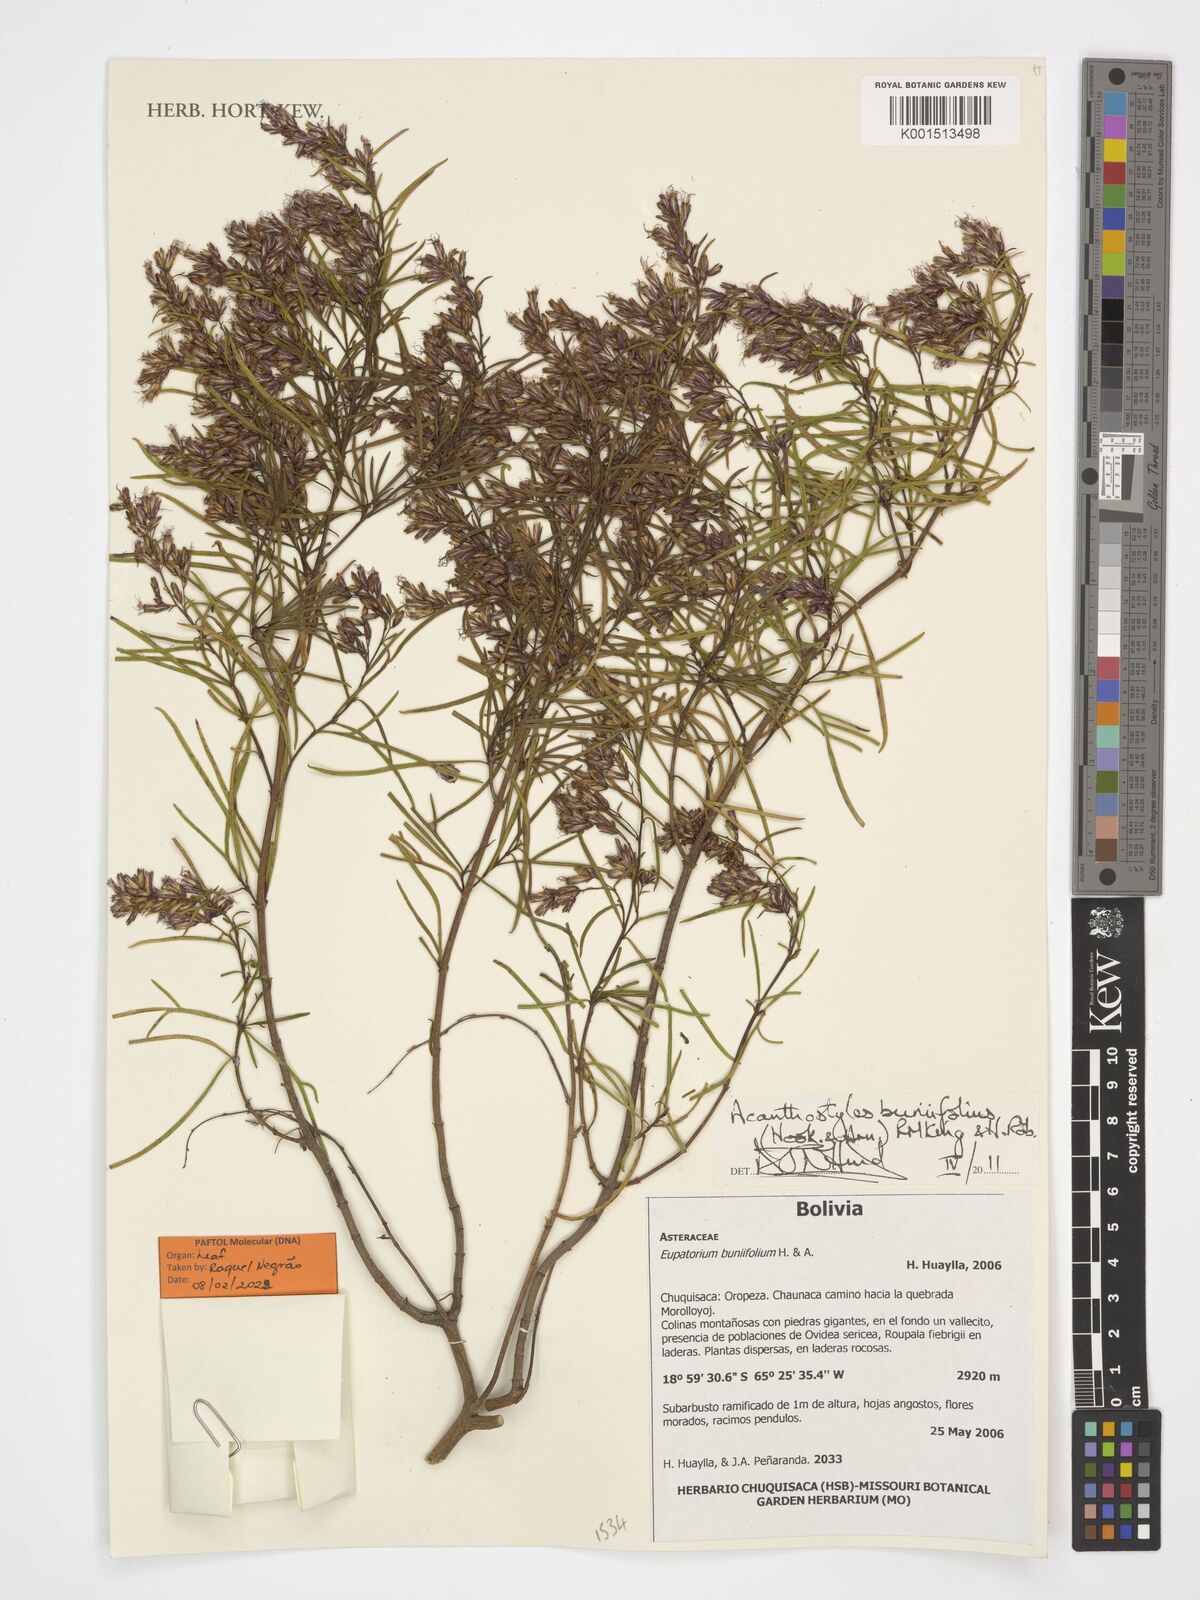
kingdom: Plantae
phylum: Tracheophyta
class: Magnoliopsida
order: Asterales
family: Asteraceae
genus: Acanthostyles
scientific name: Acanthostyles buniifolius
